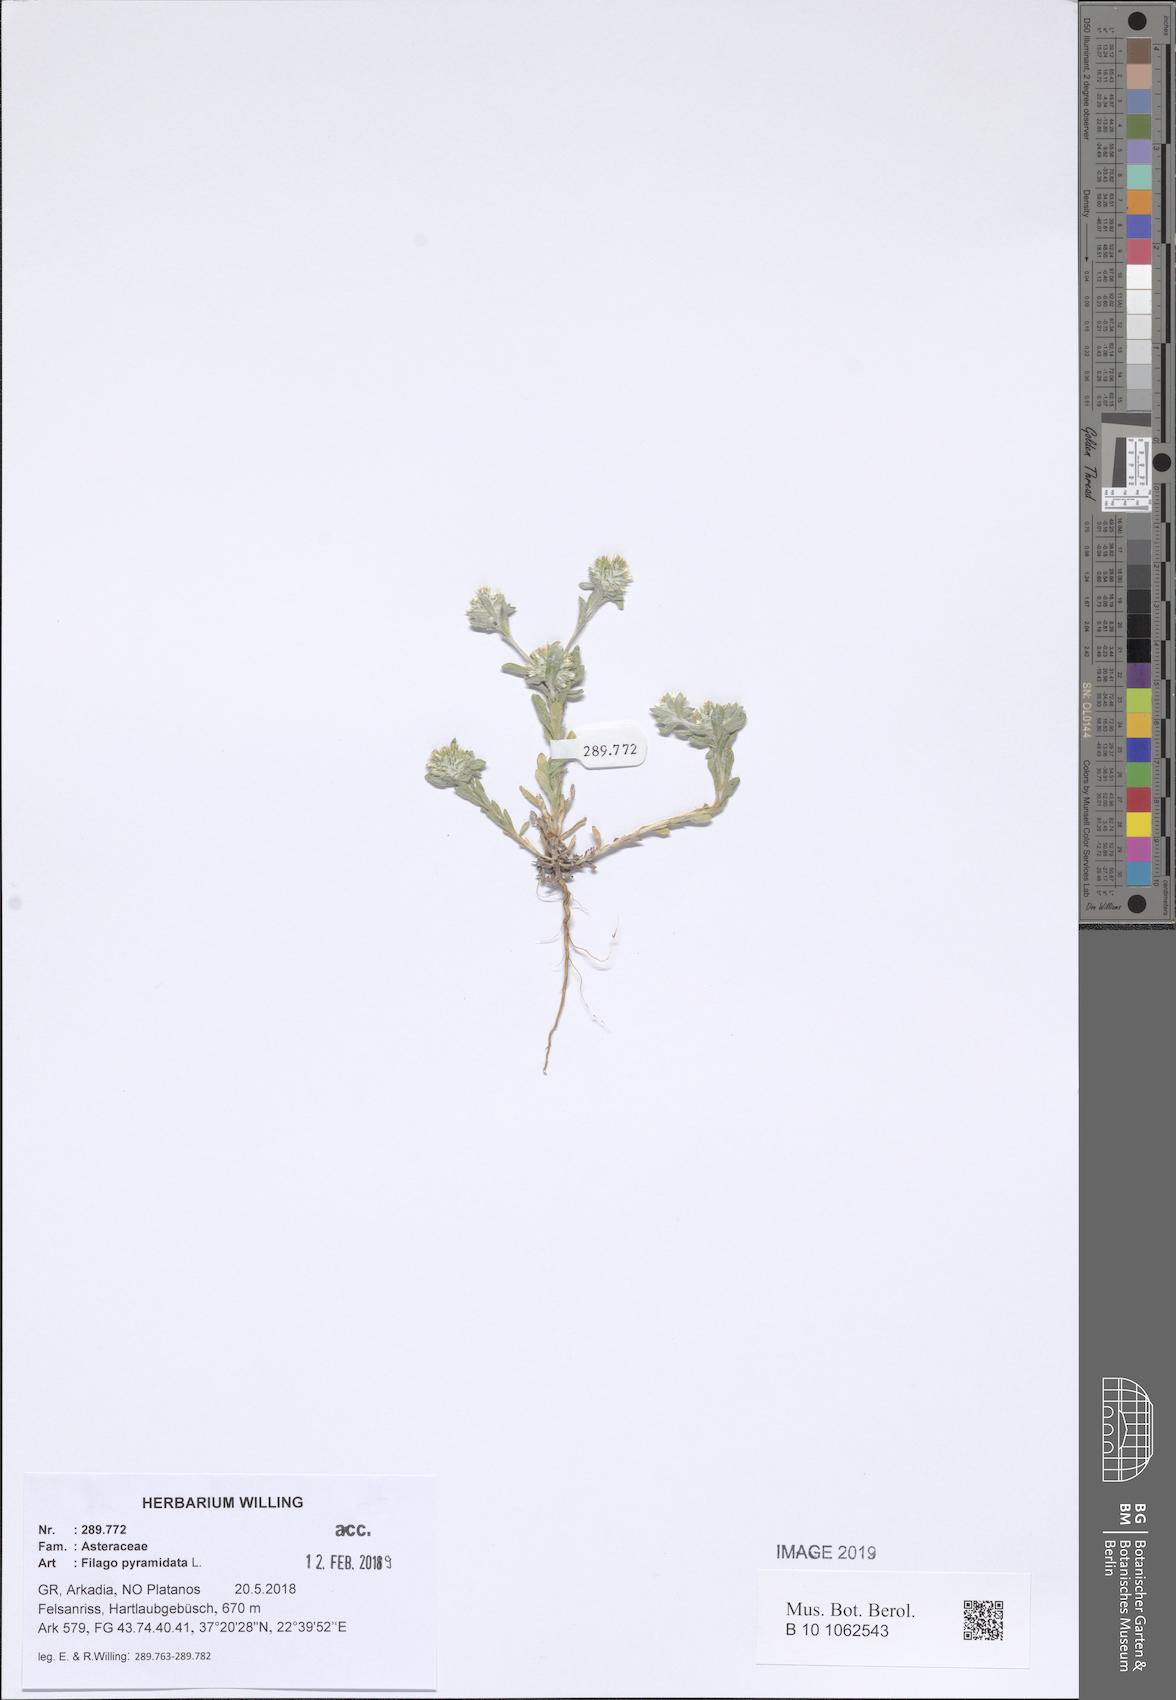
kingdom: Plantae
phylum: Tracheophyta
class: Magnoliopsida
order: Asterales
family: Asteraceae
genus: Filago
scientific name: Filago pyramidata
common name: Broad-leaved cudweed
